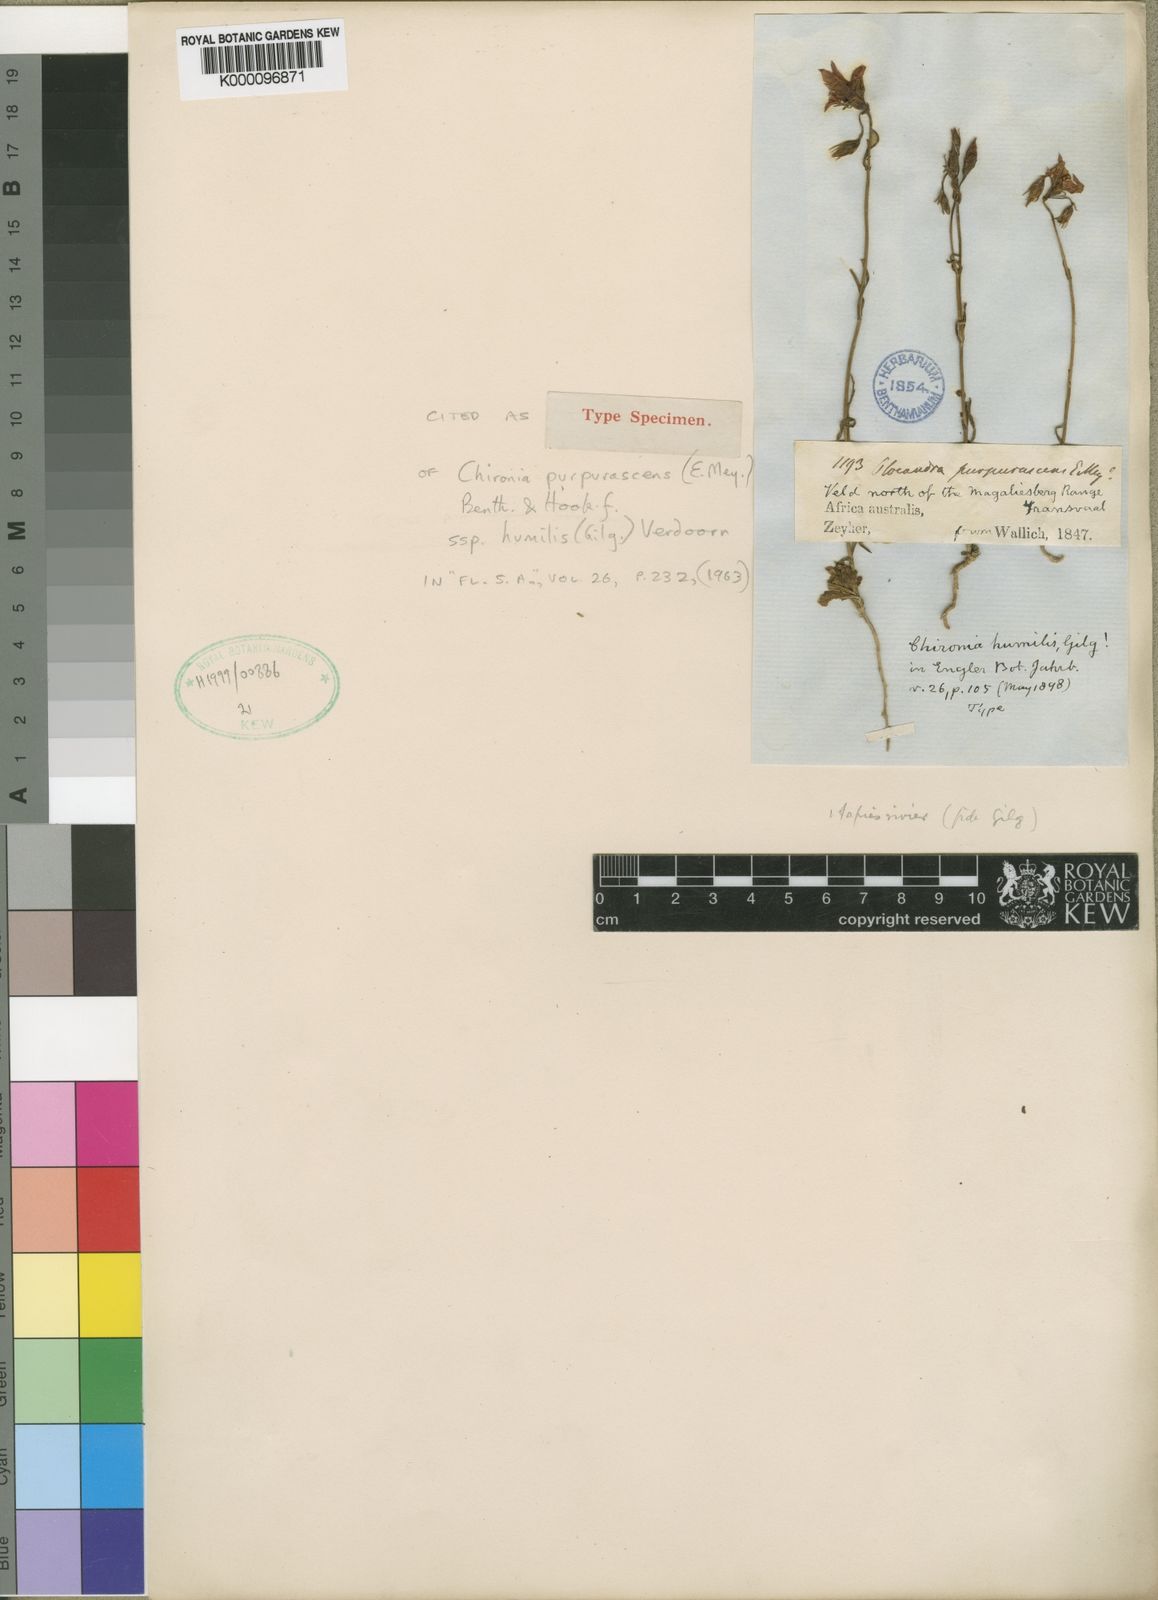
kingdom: Plantae
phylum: Tracheophyta
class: Magnoliopsida
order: Gentianales
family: Gentianaceae
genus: Chironia
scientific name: Chironia purpurascens
